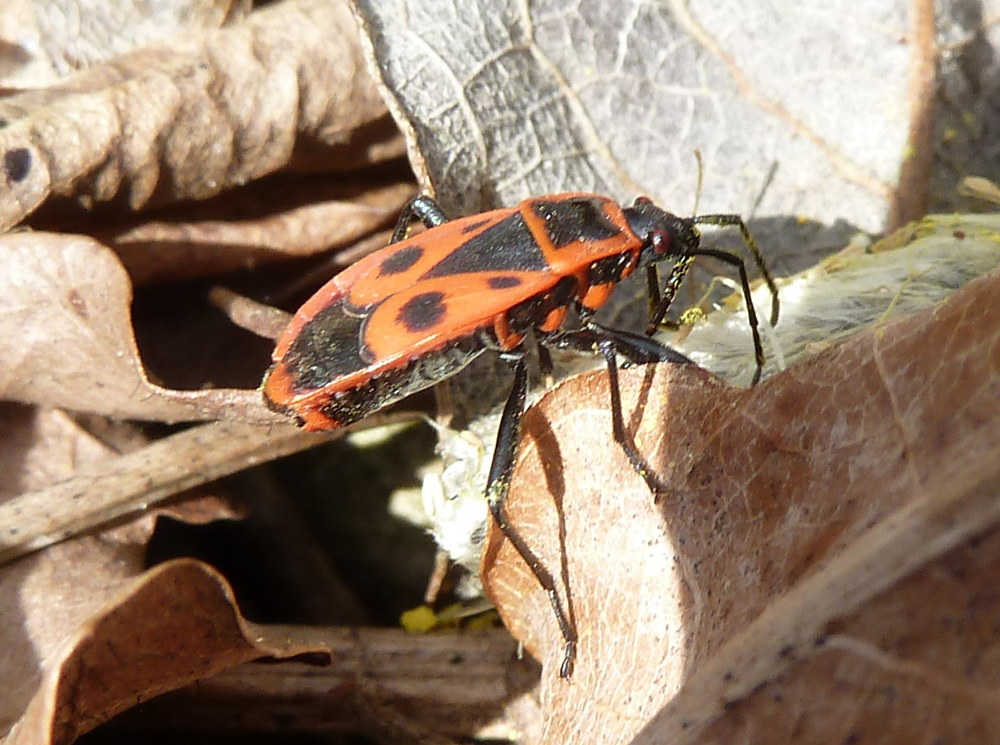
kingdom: Animalia
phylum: Arthropoda
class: Insecta
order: Hemiptera
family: Pyrrhocoridae
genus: Pyrrhocoris
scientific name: Pyrrhocoris apterus
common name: Firebug
